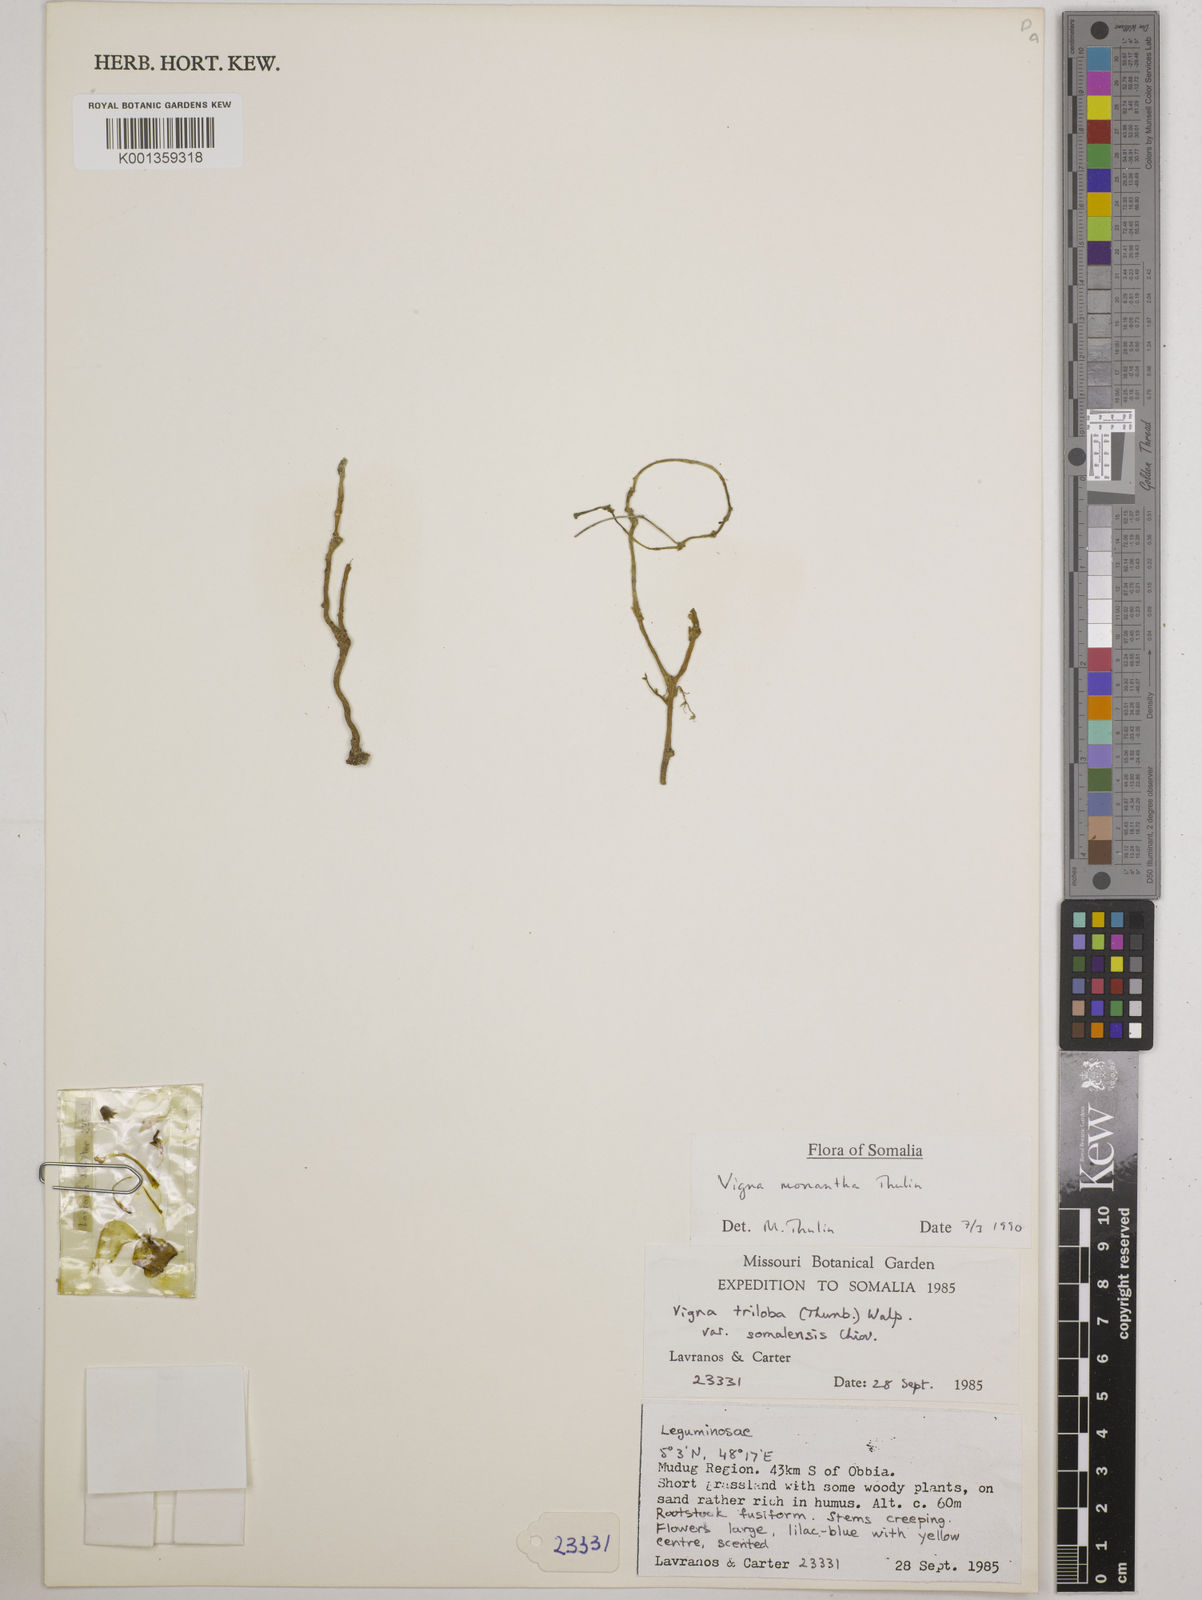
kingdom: Plantae
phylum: Tracheophyta
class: Magnoliopsida
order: Fabales
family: Fabaceae
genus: Vigna
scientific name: Vigna monantha
